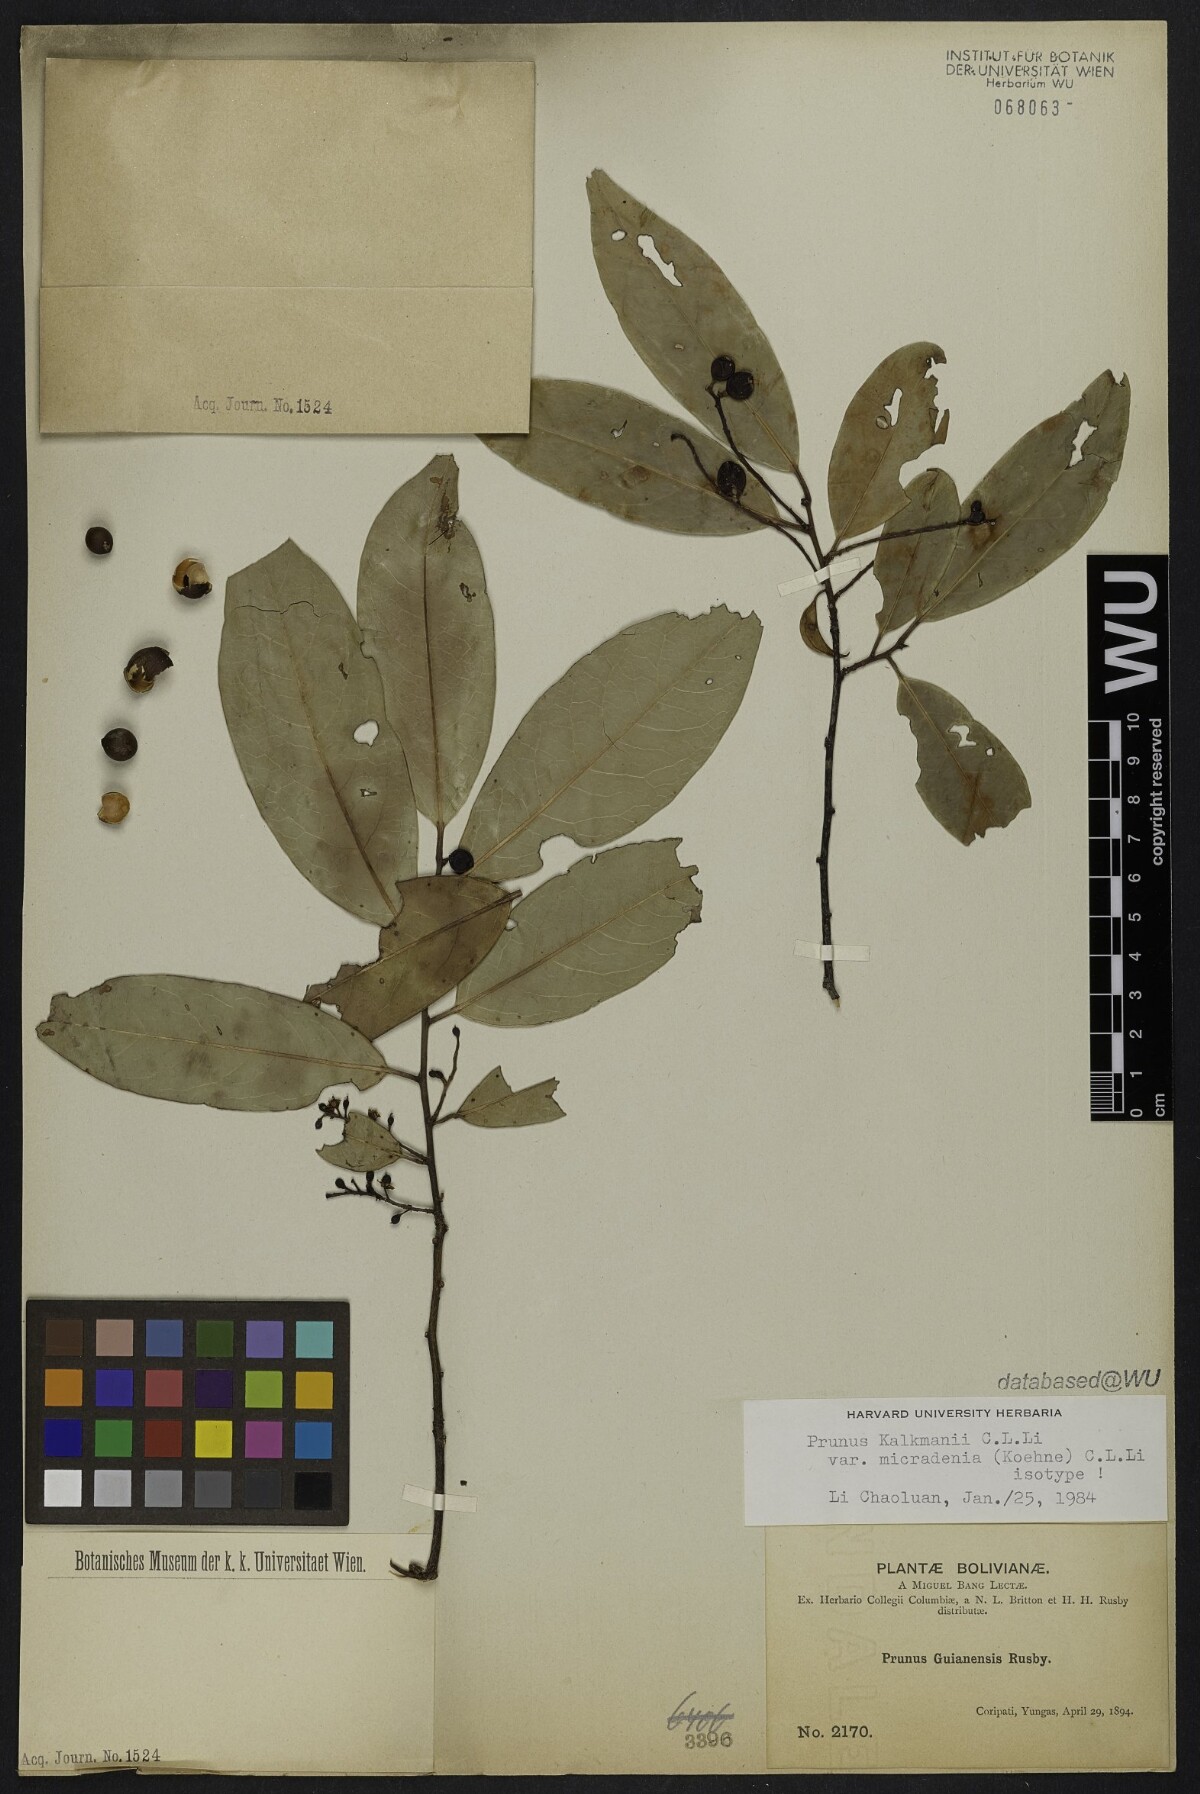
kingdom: Plantae
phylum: Tracheophyta
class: Magnoliopsida
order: Rosales
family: Rosaceae
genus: Prunus
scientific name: Prunus guanaiensis
